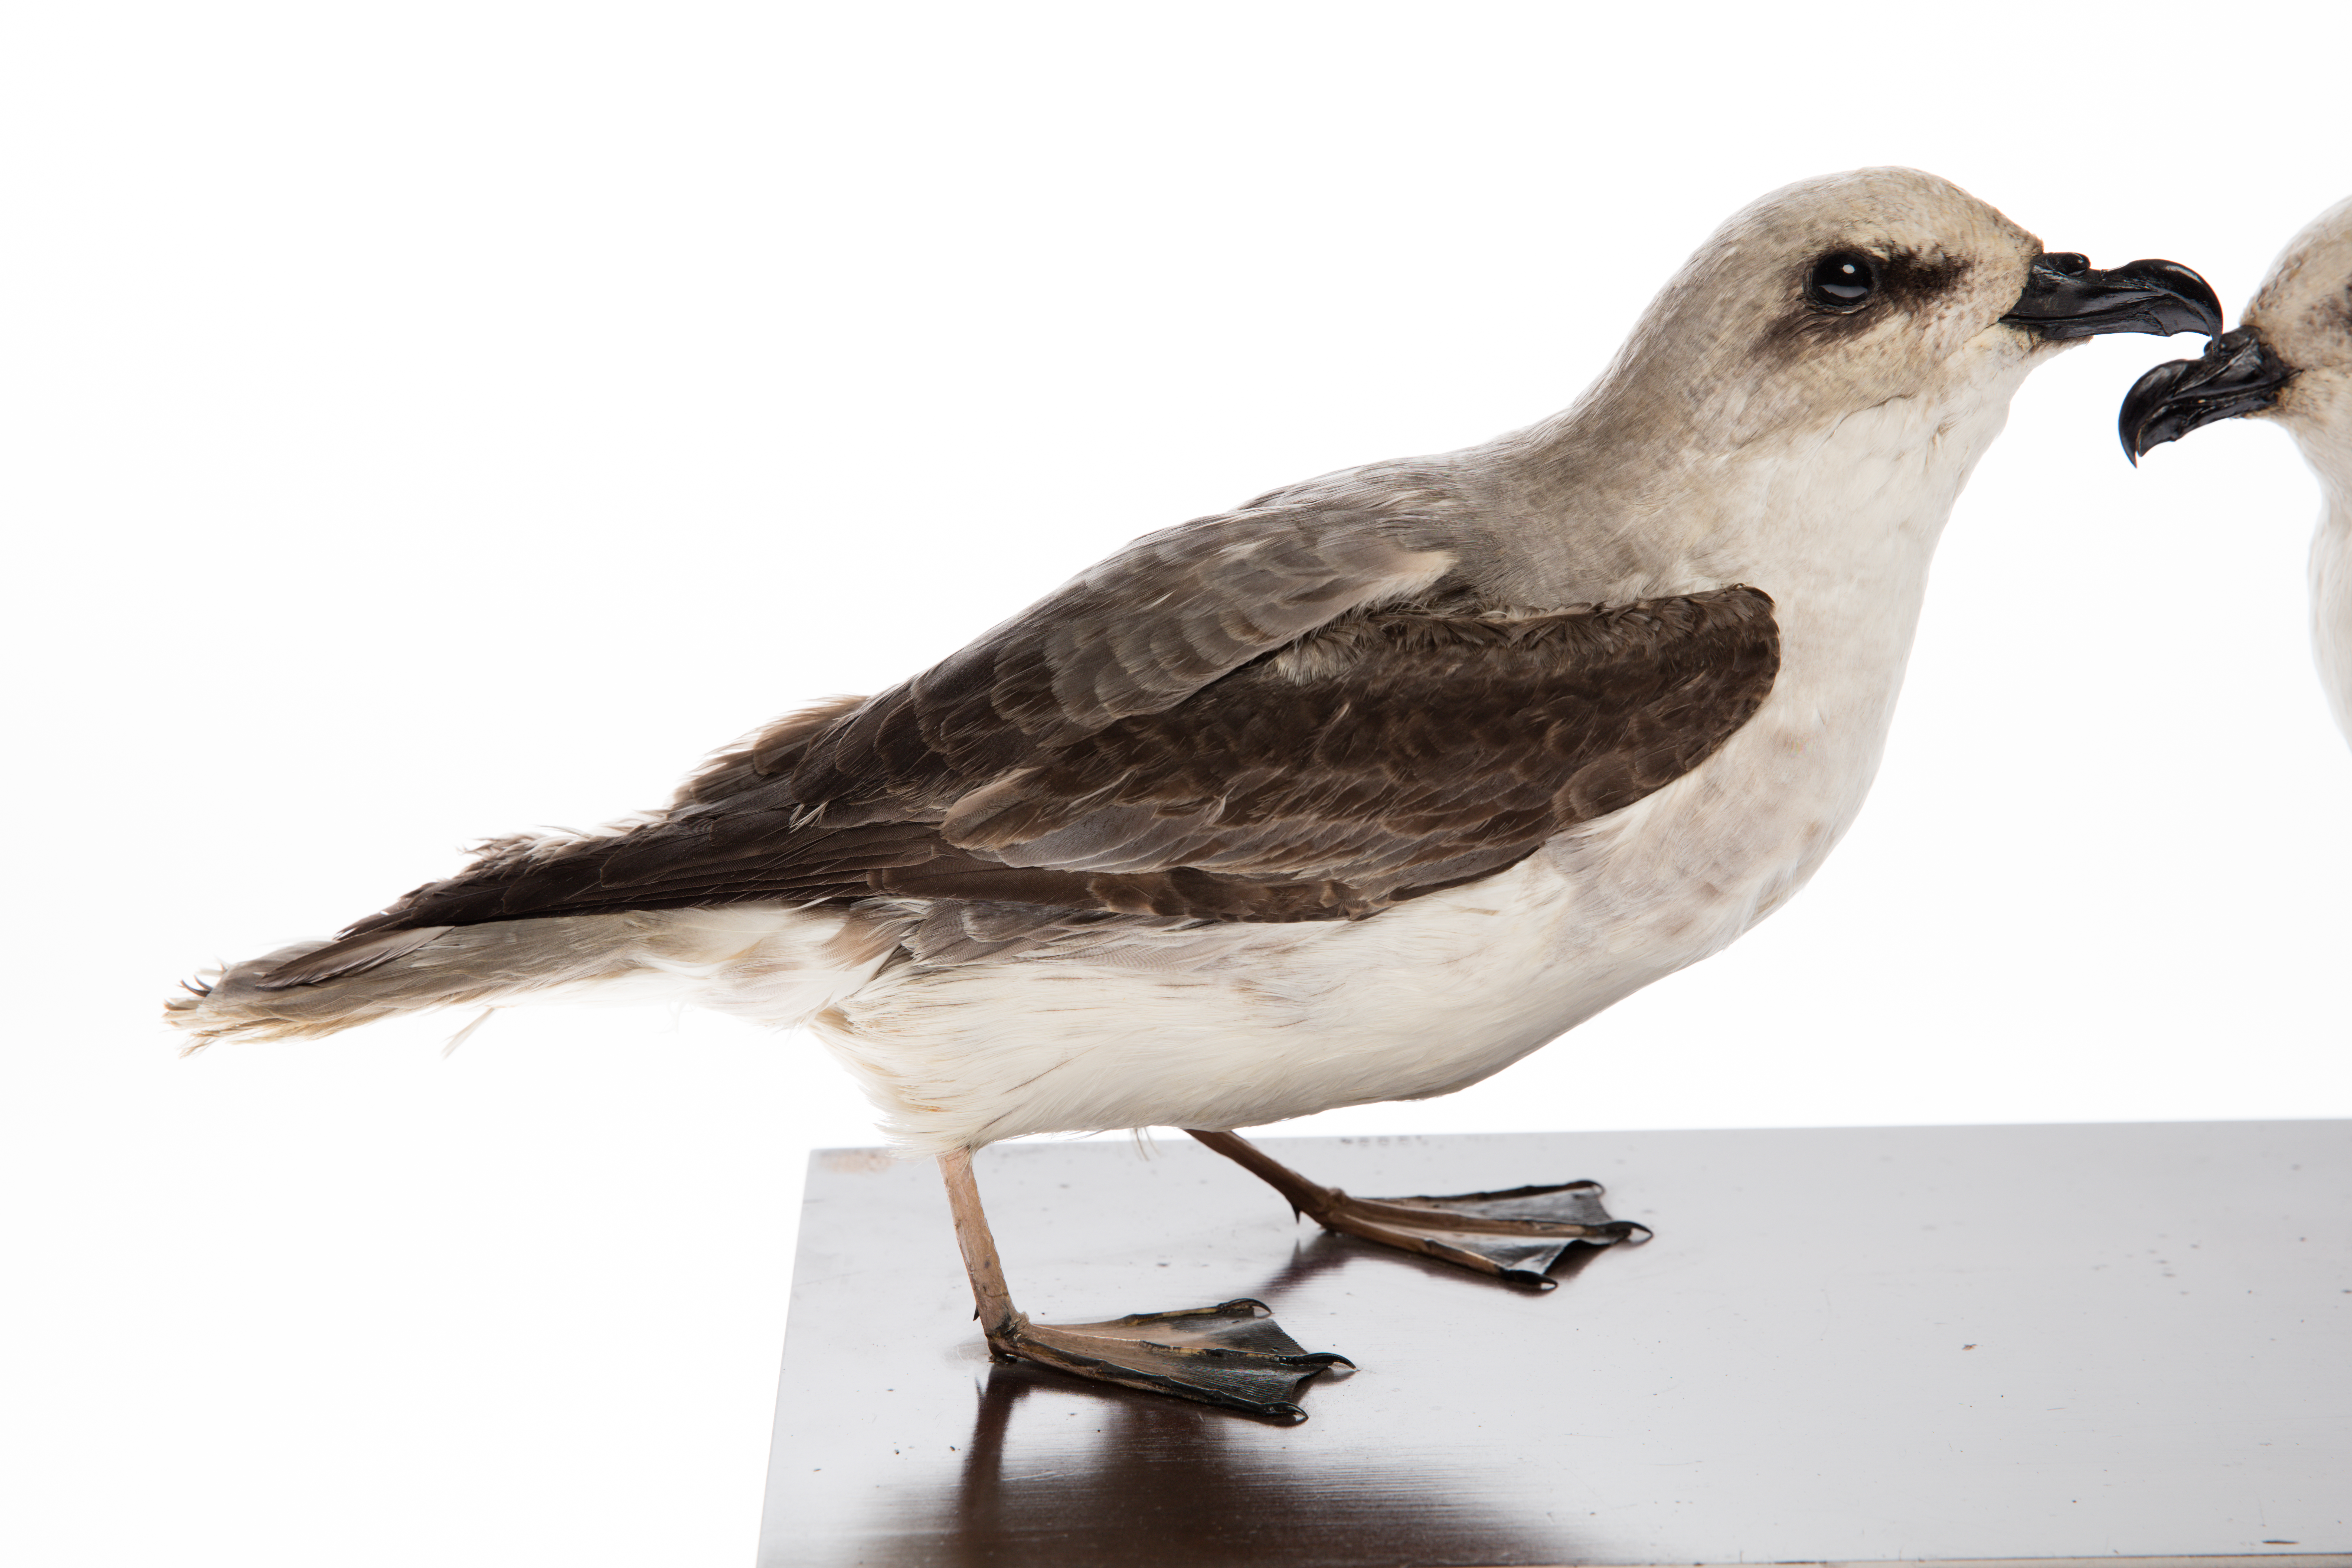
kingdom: Animalia
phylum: Chordata
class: Aves
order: Procellariiformes
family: Procellariidae
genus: Pterodroma
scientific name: Pterodroma lessonii
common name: White-headed petrel
